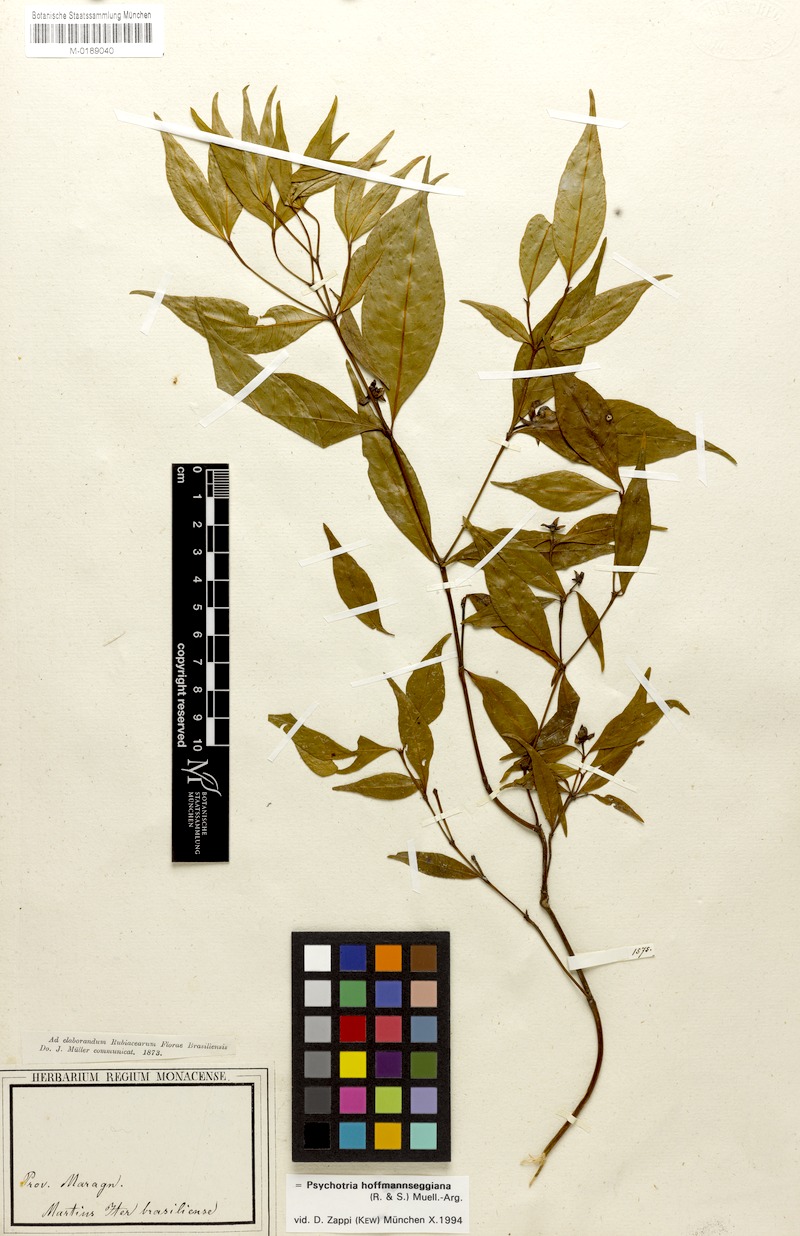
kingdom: Plantae
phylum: Tracheophyta
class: Magnoliopsida
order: Gentianales
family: Rubiaceae
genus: Palicourea
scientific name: Palicourea hoffmannseggiana
